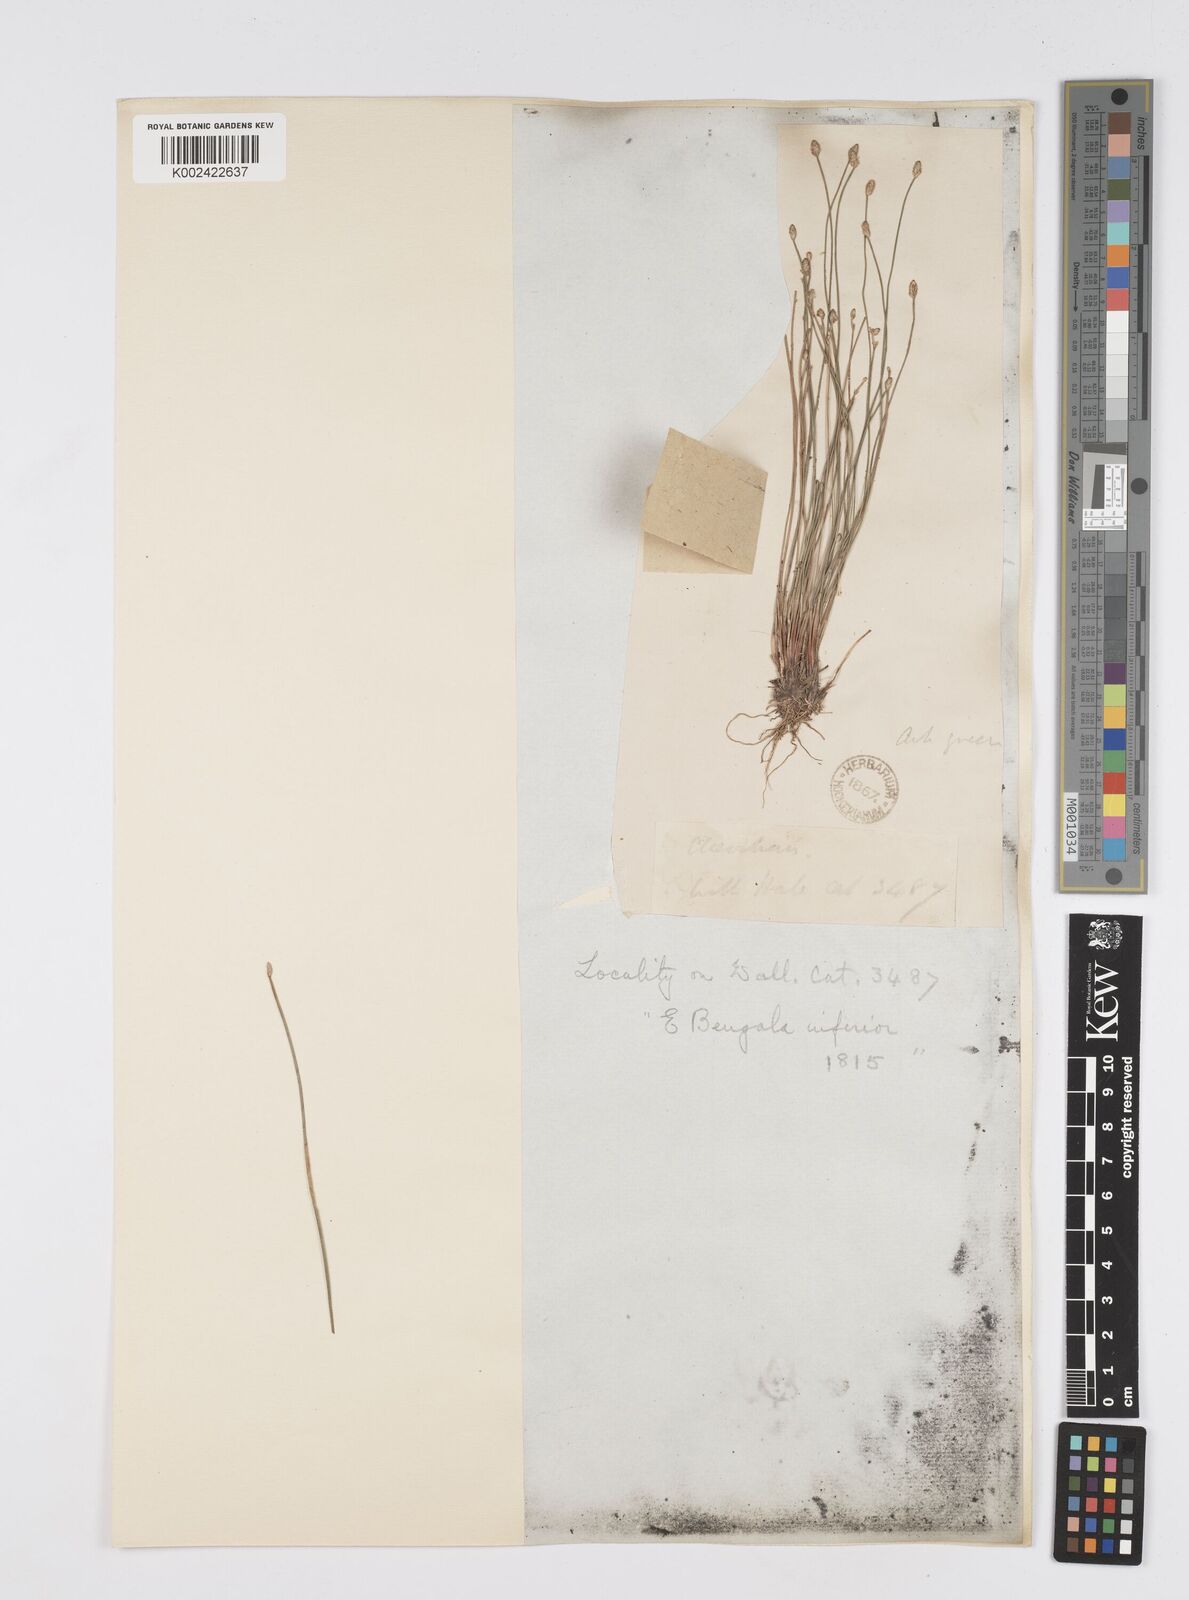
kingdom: Plantae
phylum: Tracheophyta
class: Liliopsida
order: Poales
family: Cyperaceae
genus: Eleocharis
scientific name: Eleocharis pellucida
